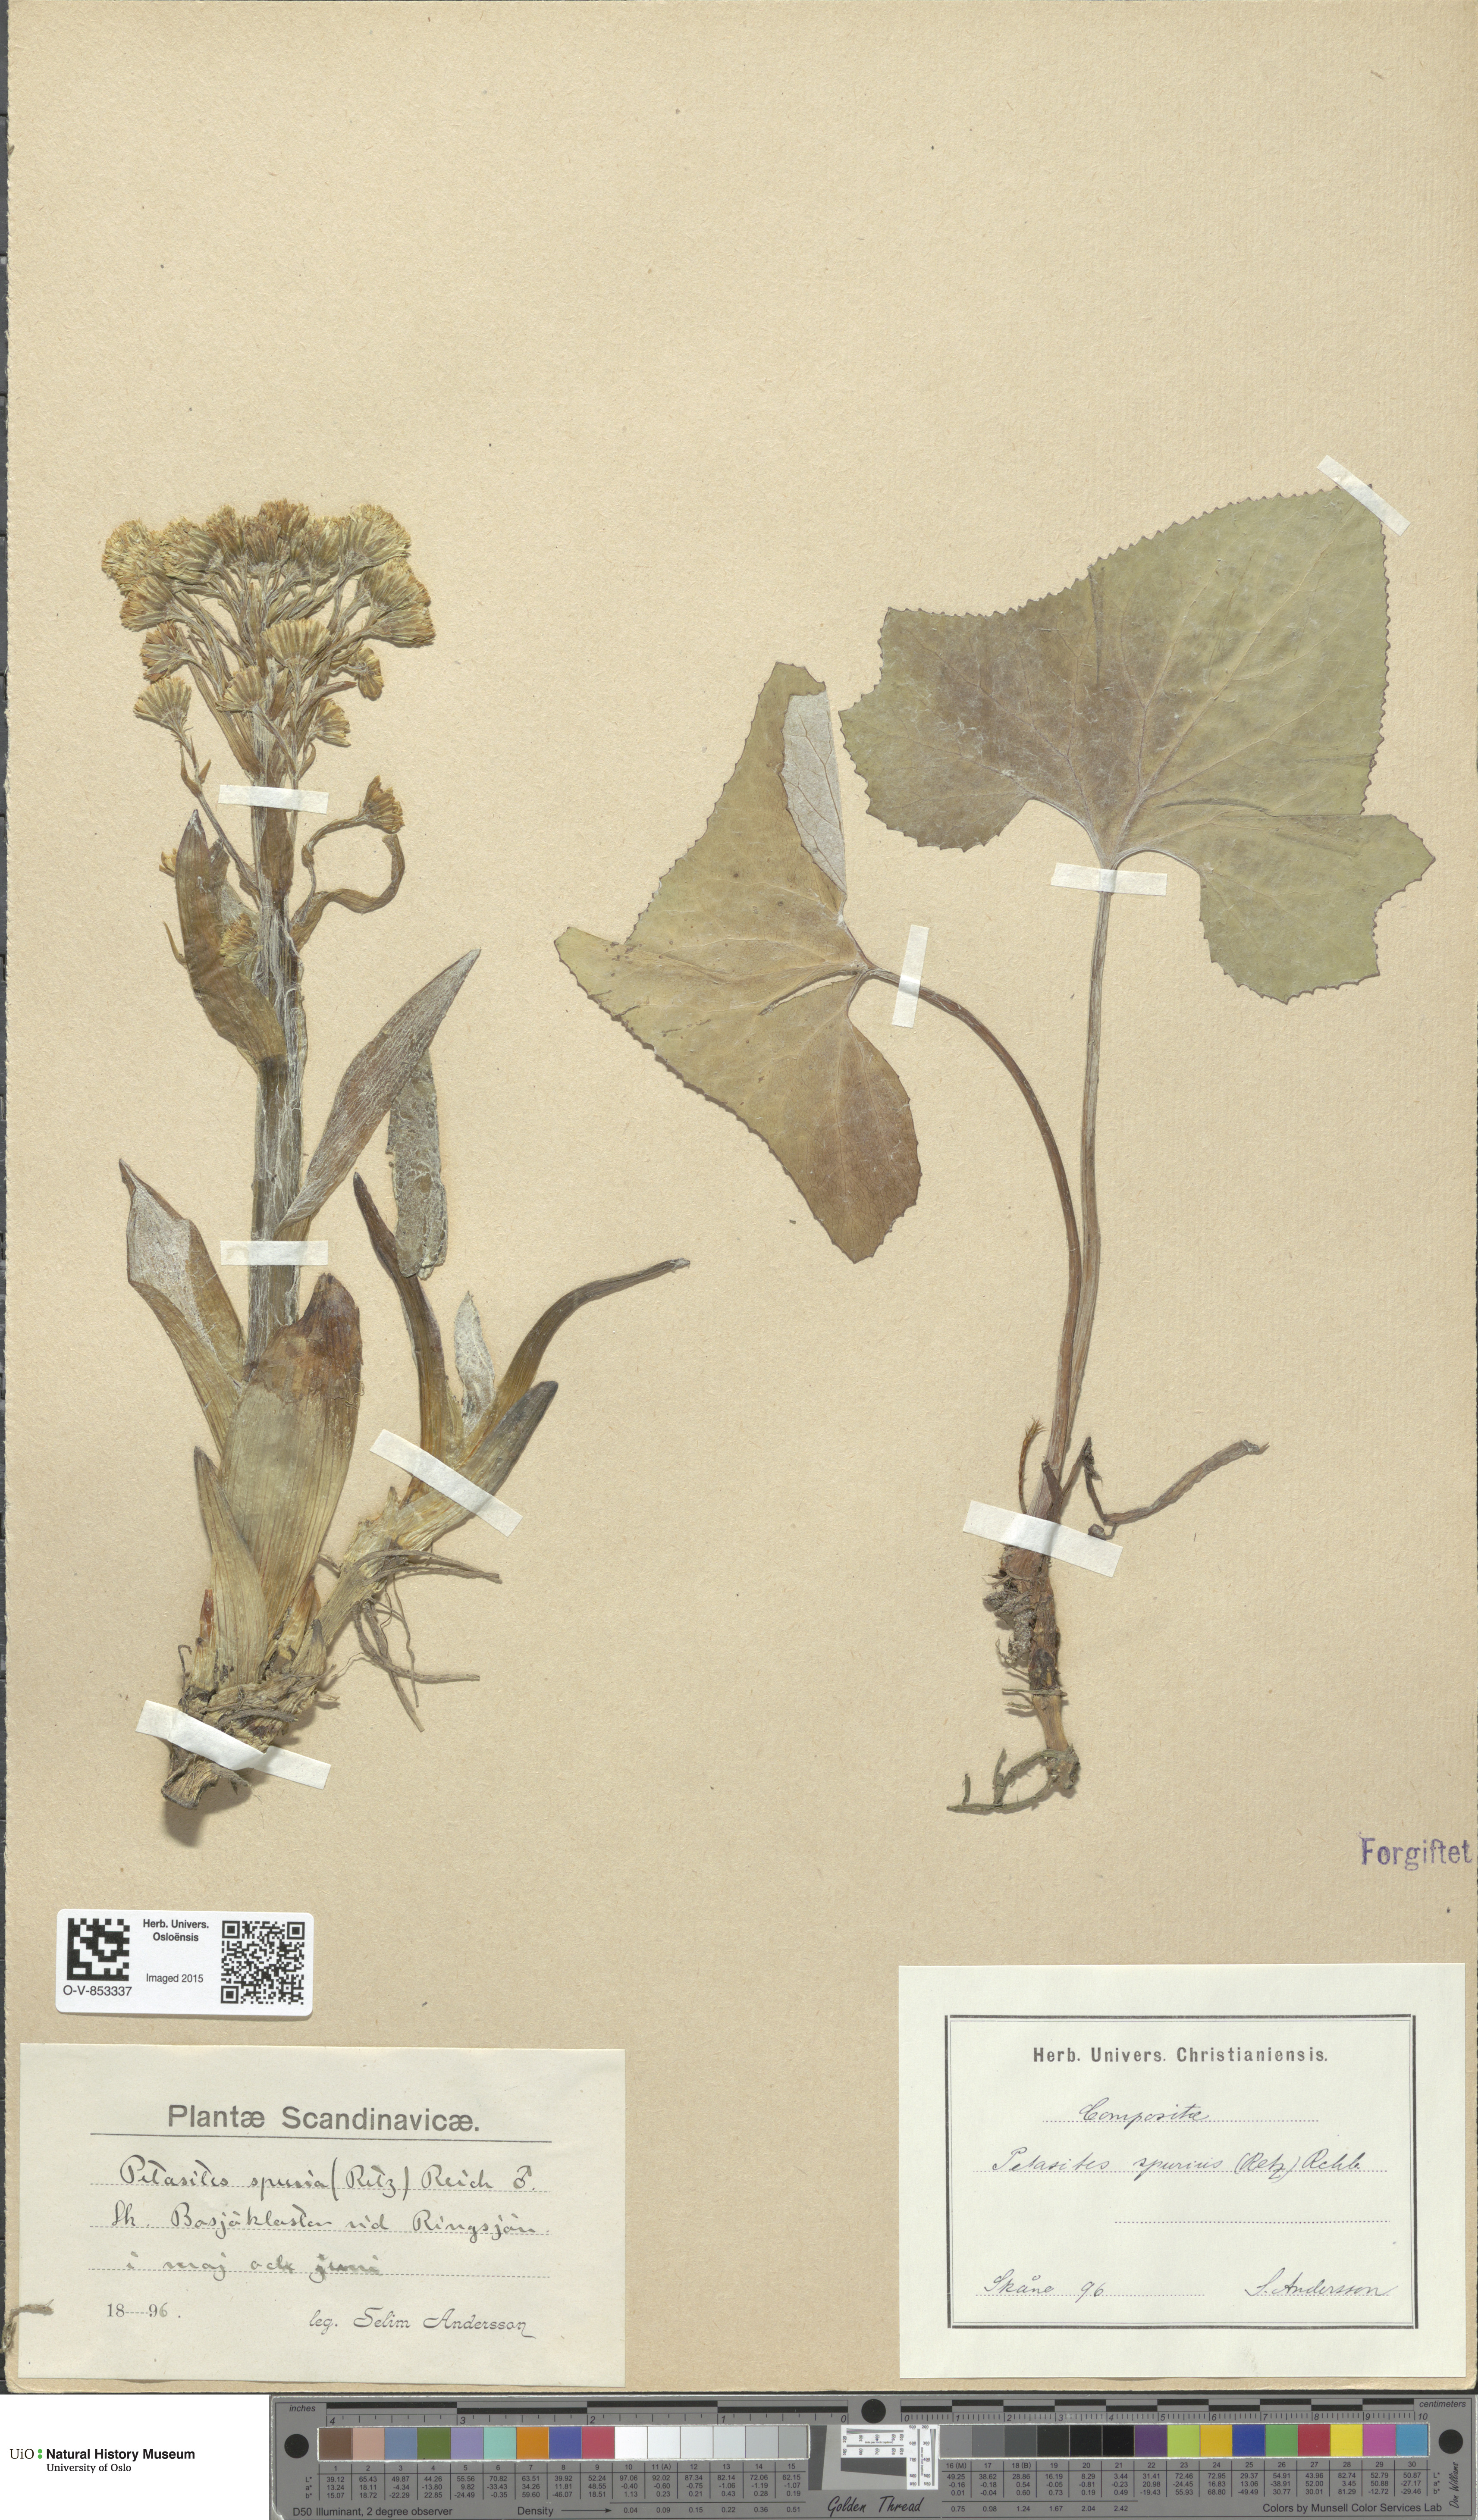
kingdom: Plantae
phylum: Tracheophyta
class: Magnoliopsida
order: Asterales
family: Asteraceae
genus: Petasites
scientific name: Petasites spurius
